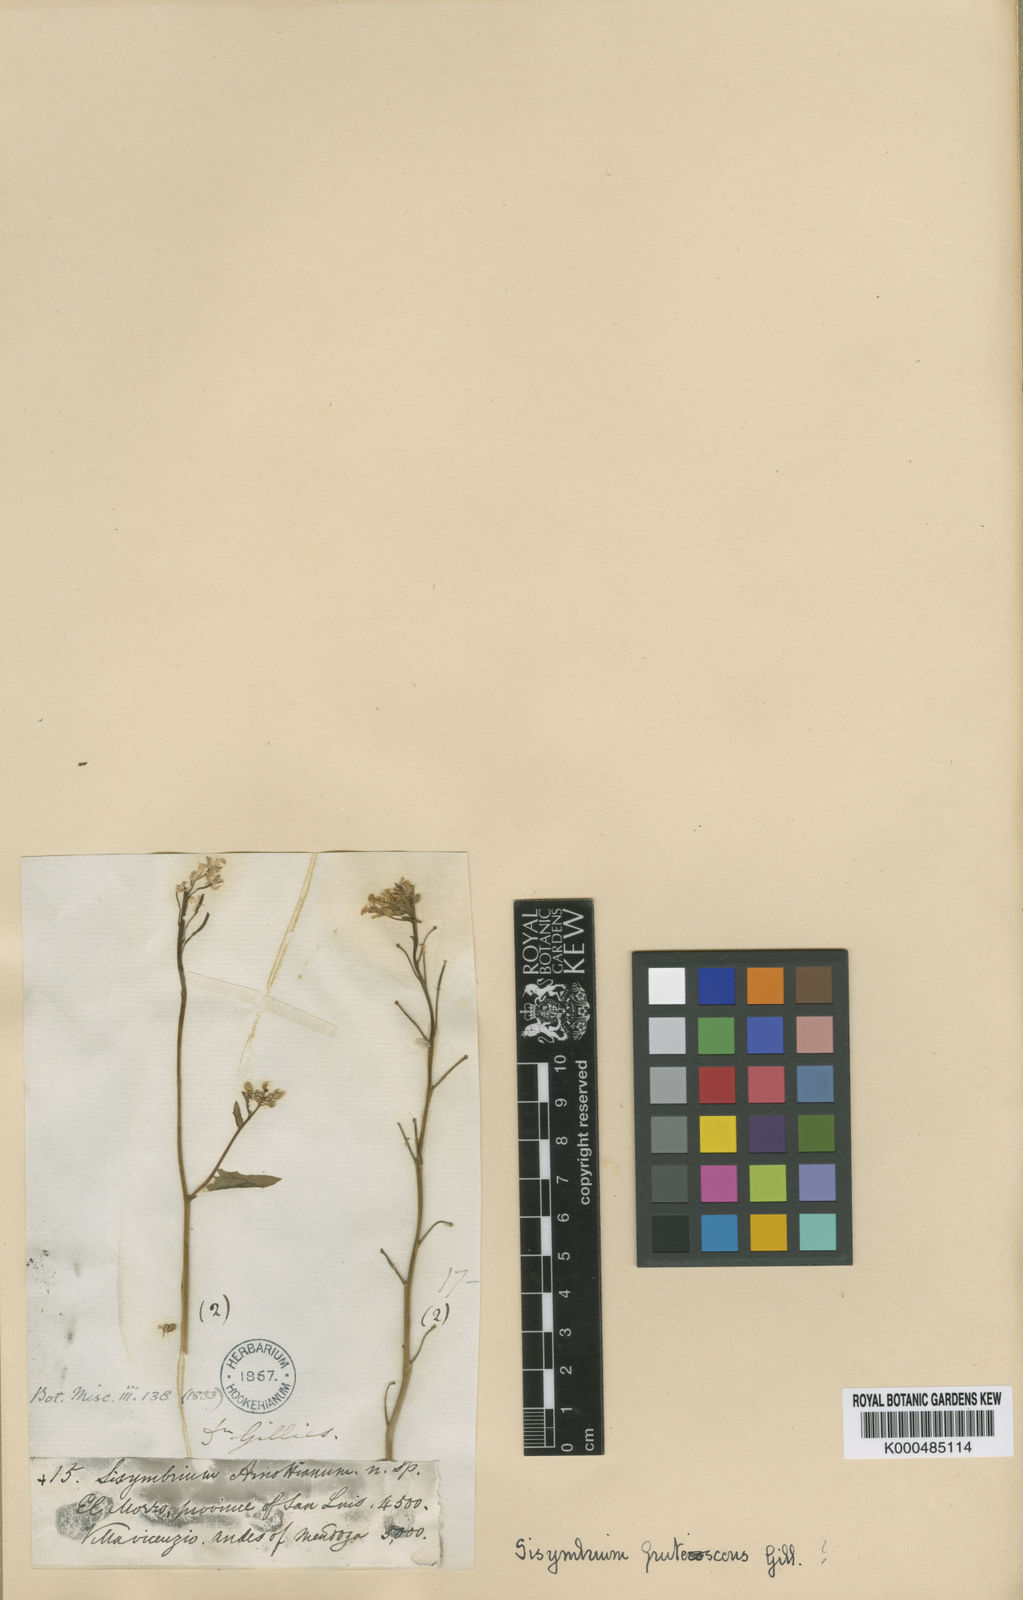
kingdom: Plantae
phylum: Tracheophyta
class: Magnoliopsida
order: Brassicales
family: Brassicaceae
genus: Neuontobotrys
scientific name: Neuontobotrys frutescens
